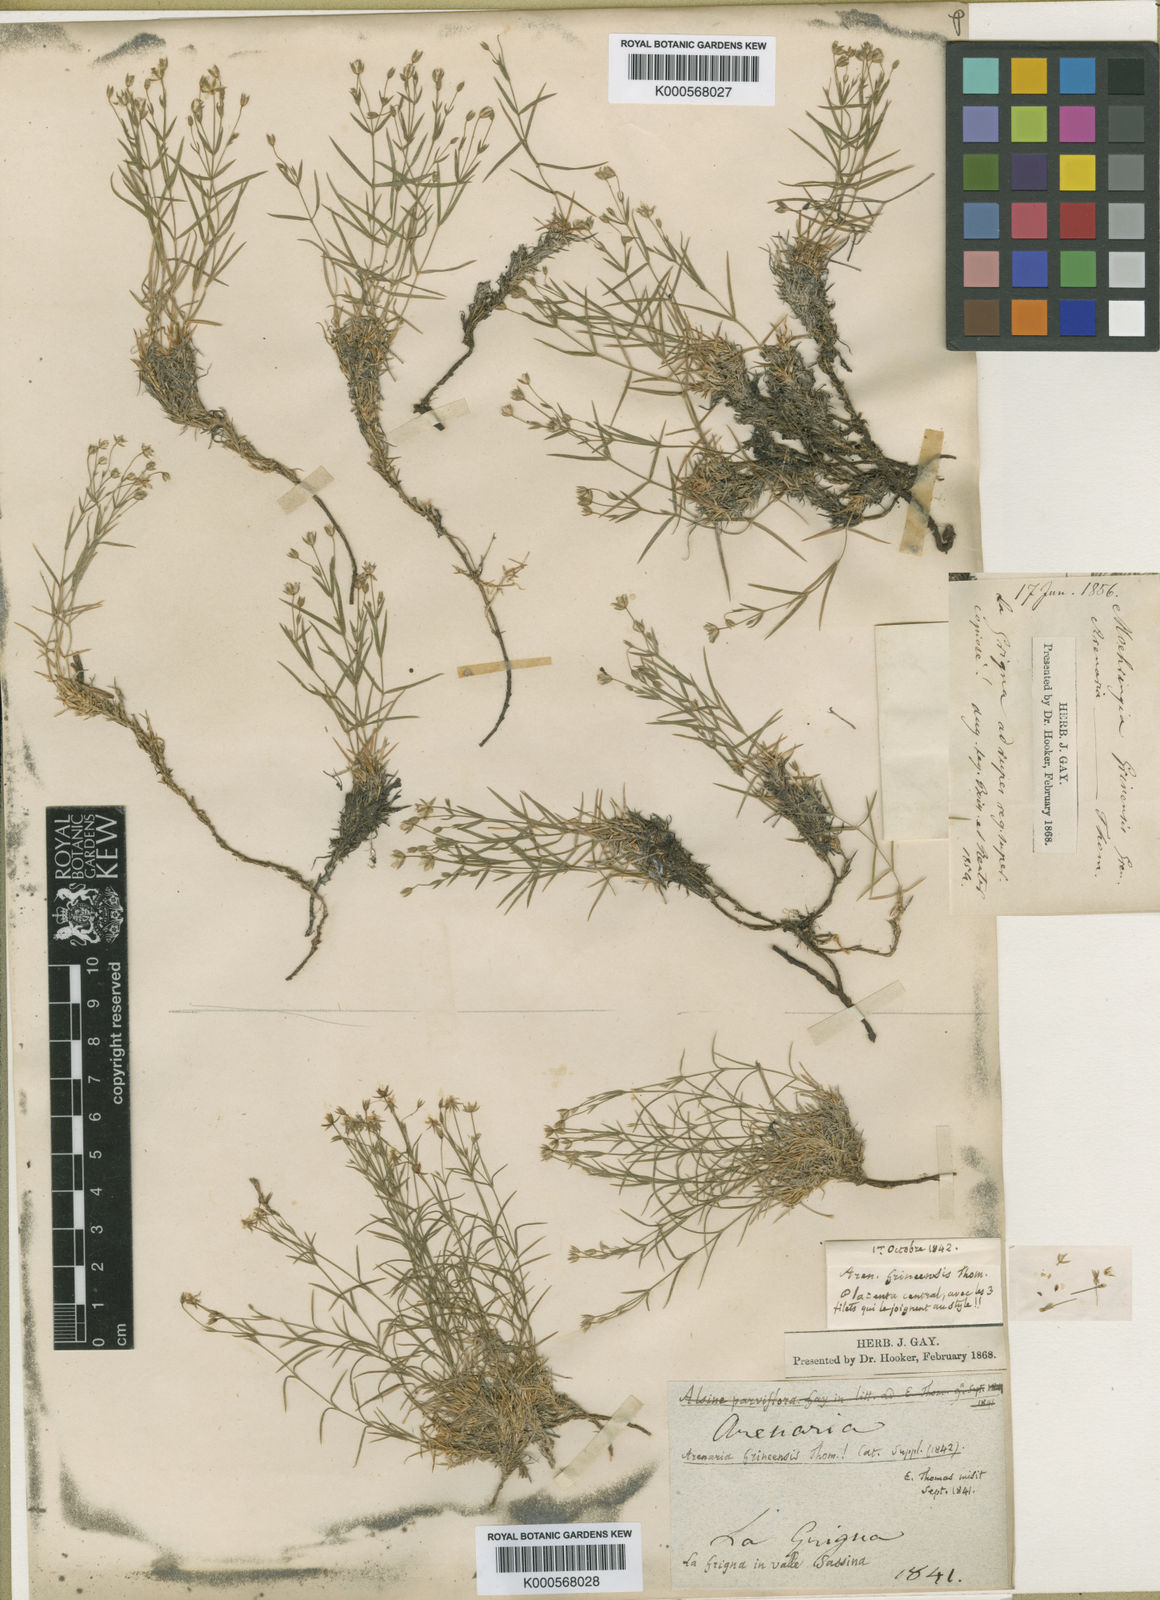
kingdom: Plantae
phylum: Tracheophyta
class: Magnoliopsida
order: Caryophyllales
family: Caryophyllaceae
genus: Minuartia
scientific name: Minuartia
